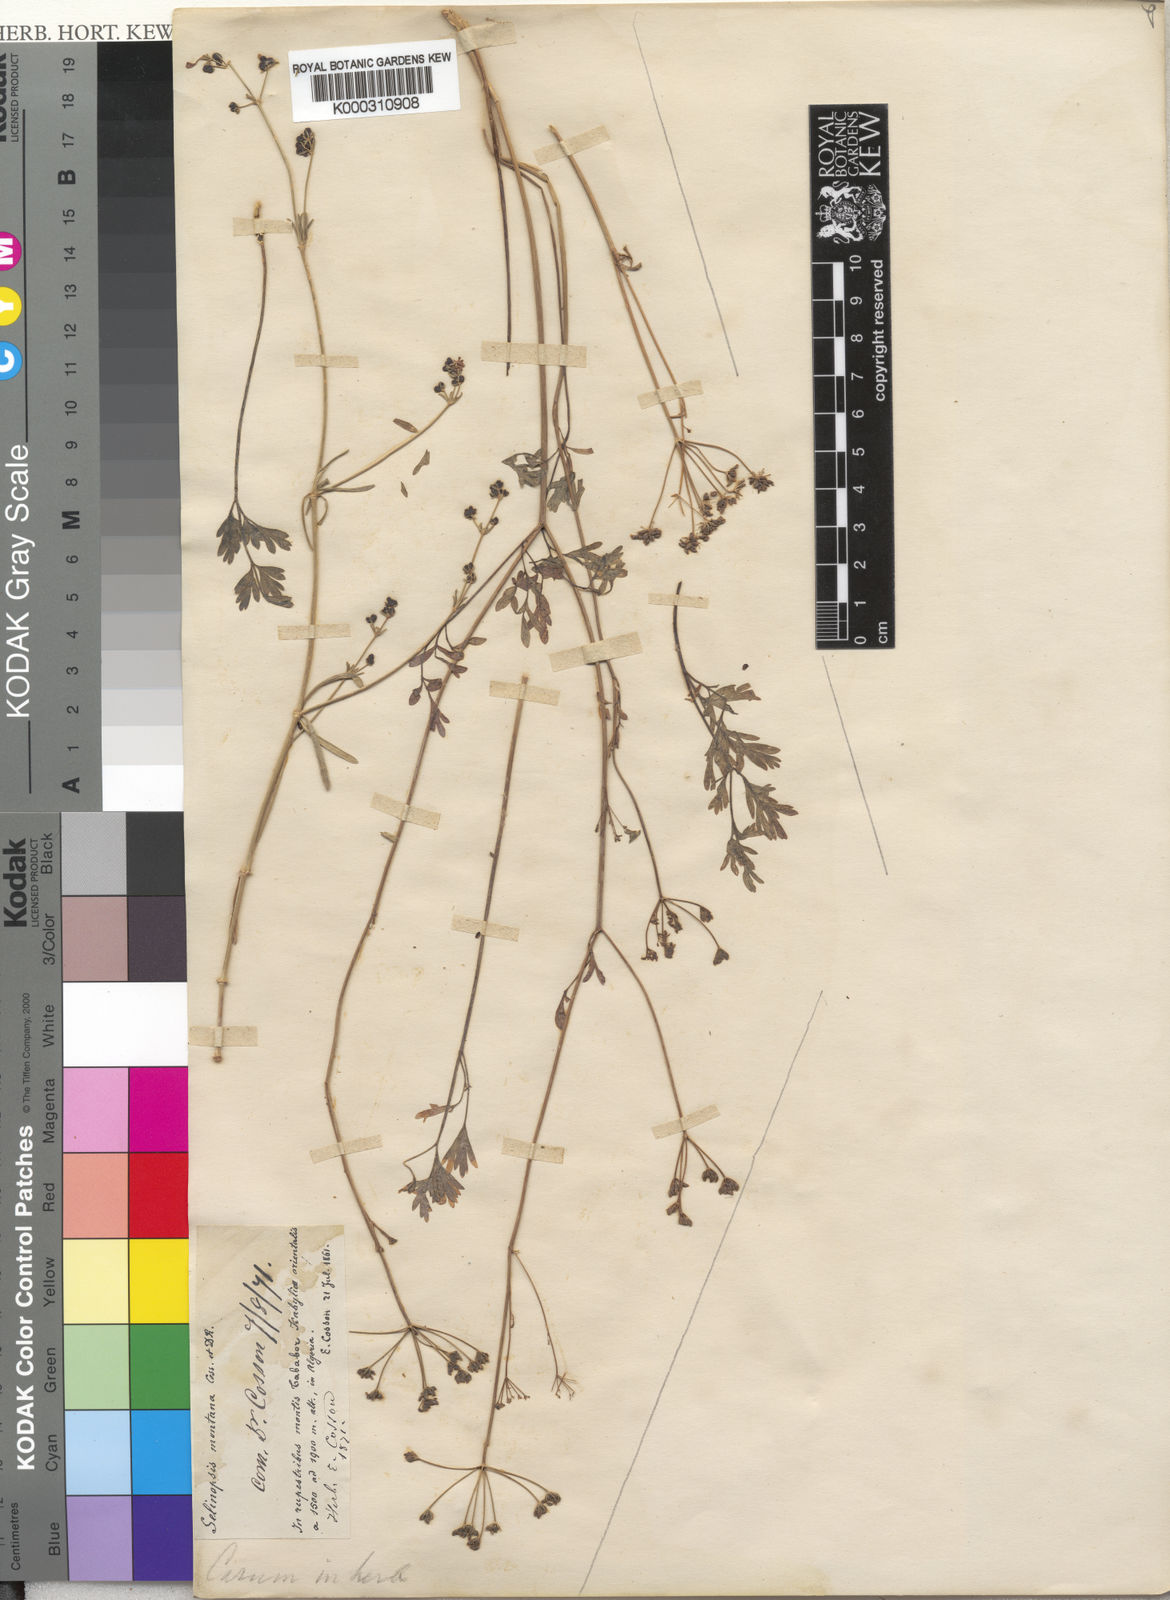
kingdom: Plantae
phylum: Tracheophyta
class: Magnoliopsida
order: Apiales
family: Apiaceae
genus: Perideridia
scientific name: Perideridia gairdneri
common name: False caraway
